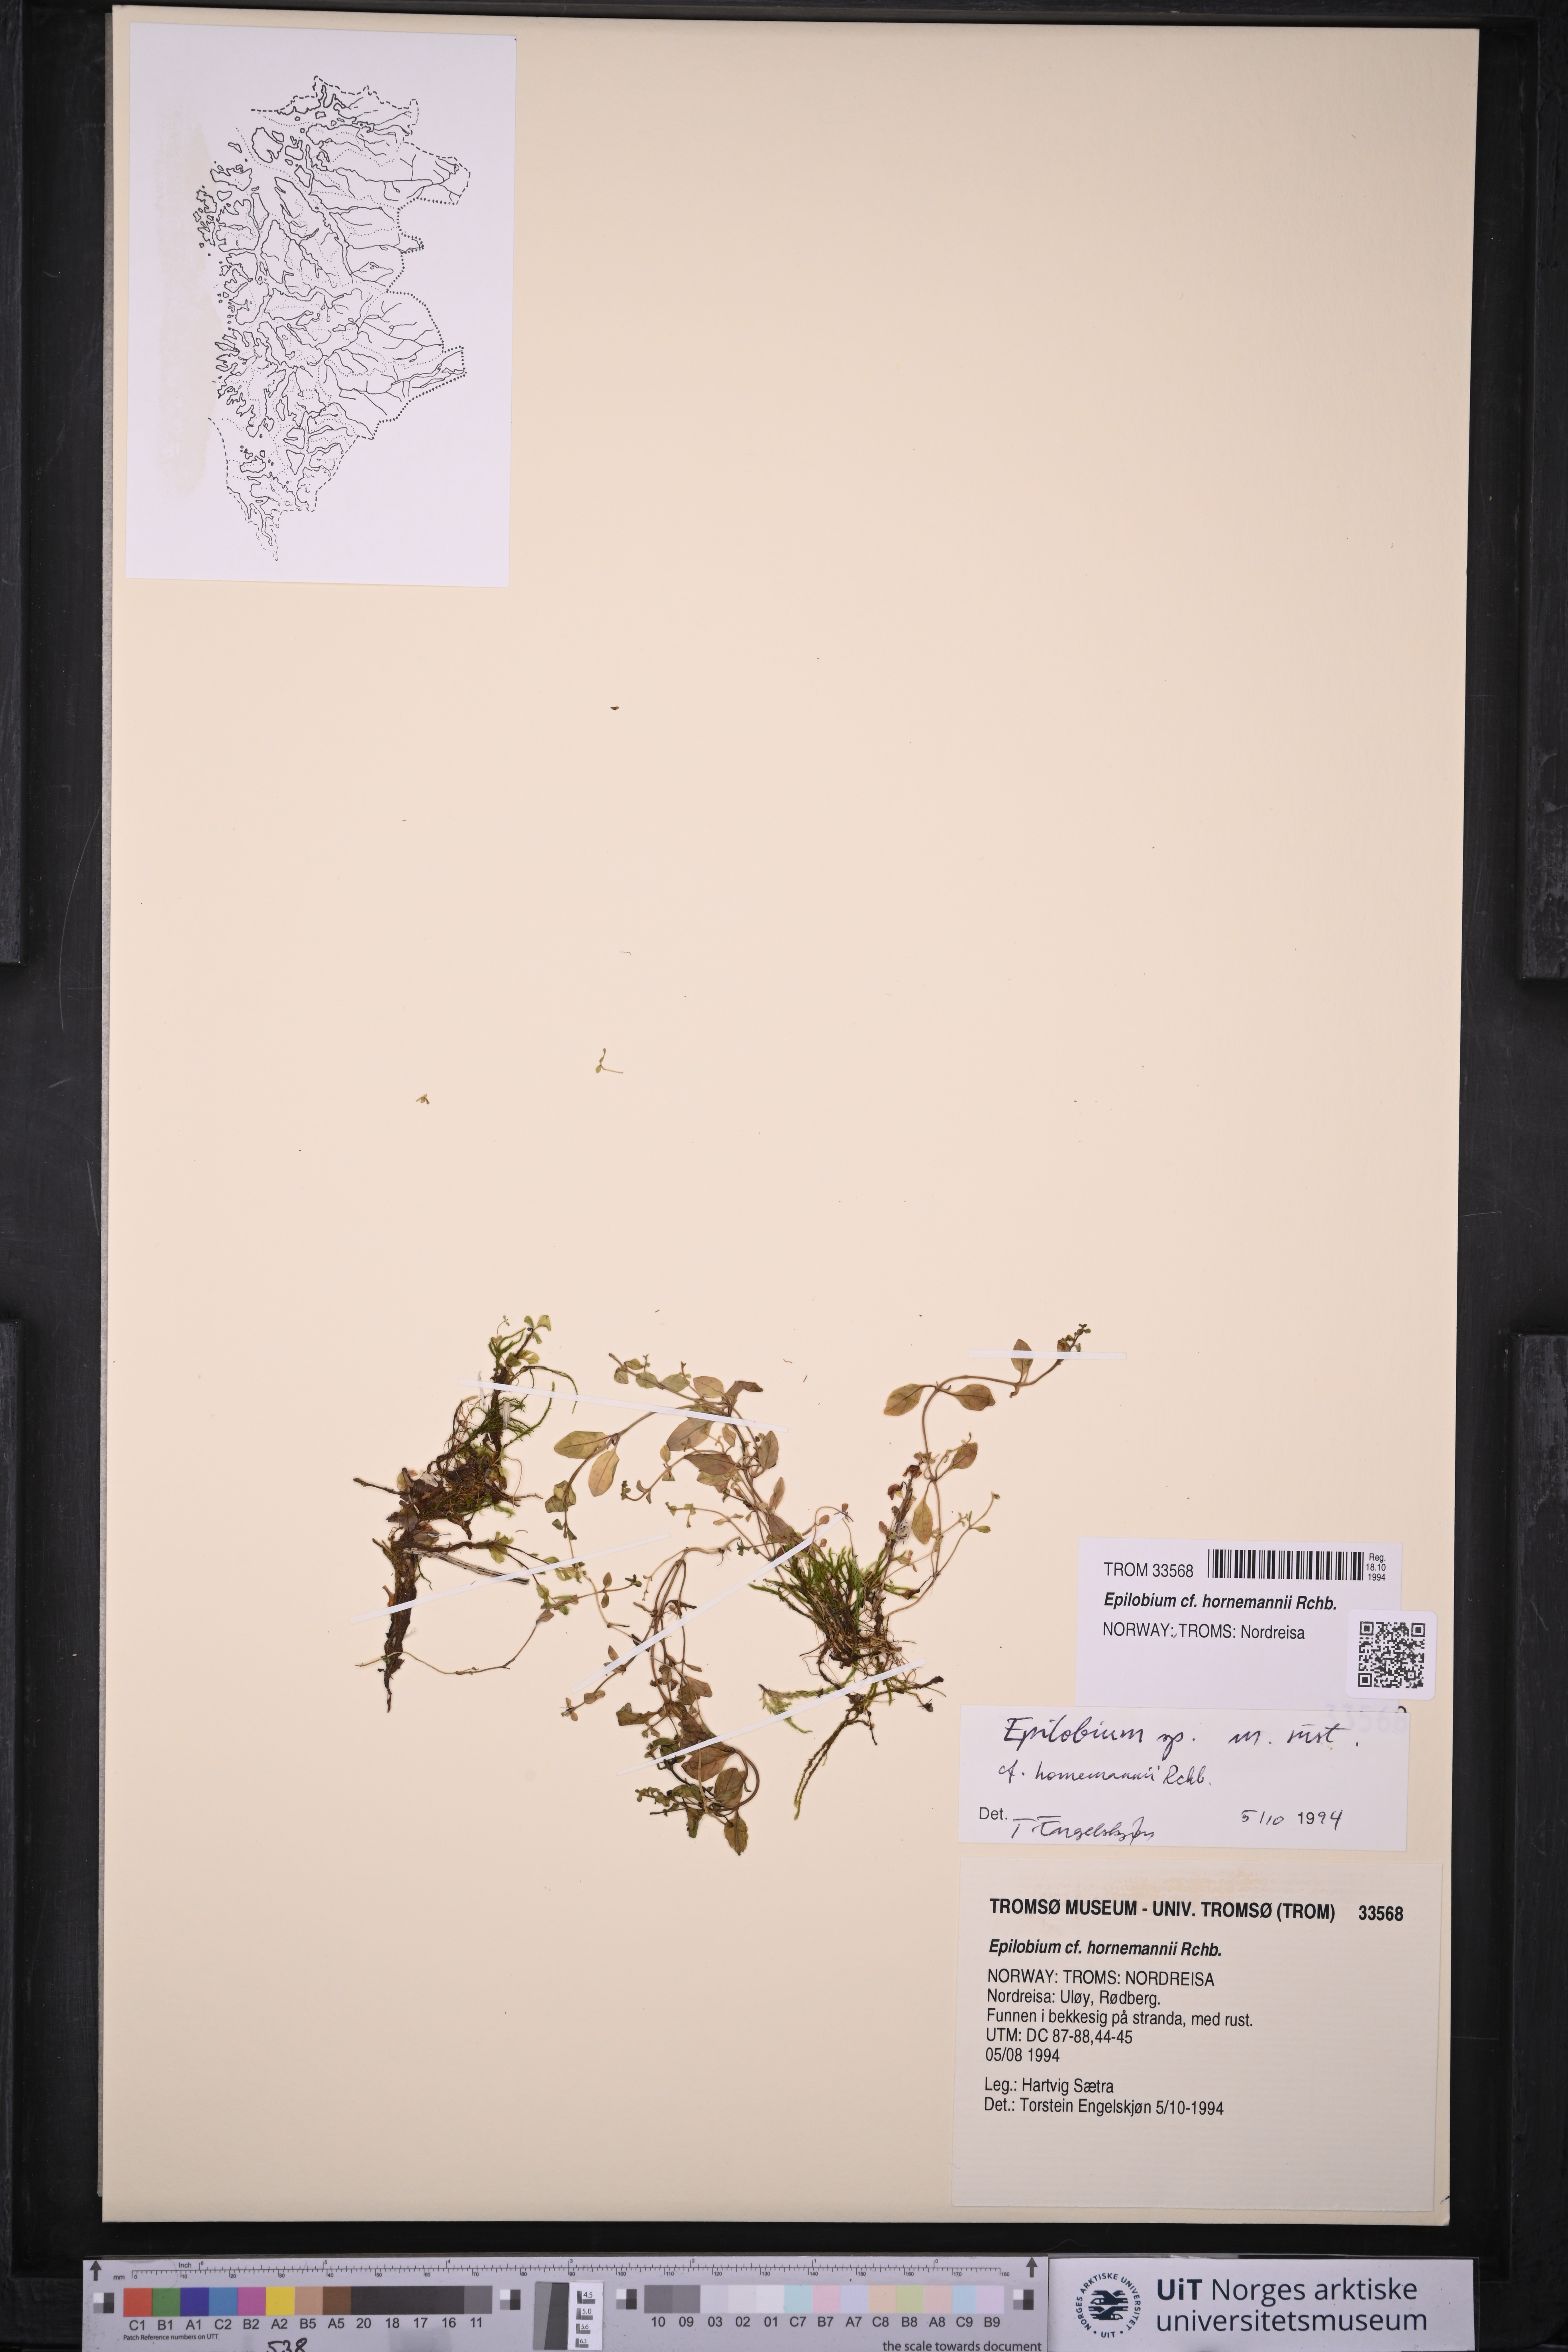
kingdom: Plantae
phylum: Tracheophyta
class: Magnoliopsida
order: Myrtales
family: Onagraceae
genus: Epilobium
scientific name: Epilobium hornemannii
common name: Hornemann's willowherb
